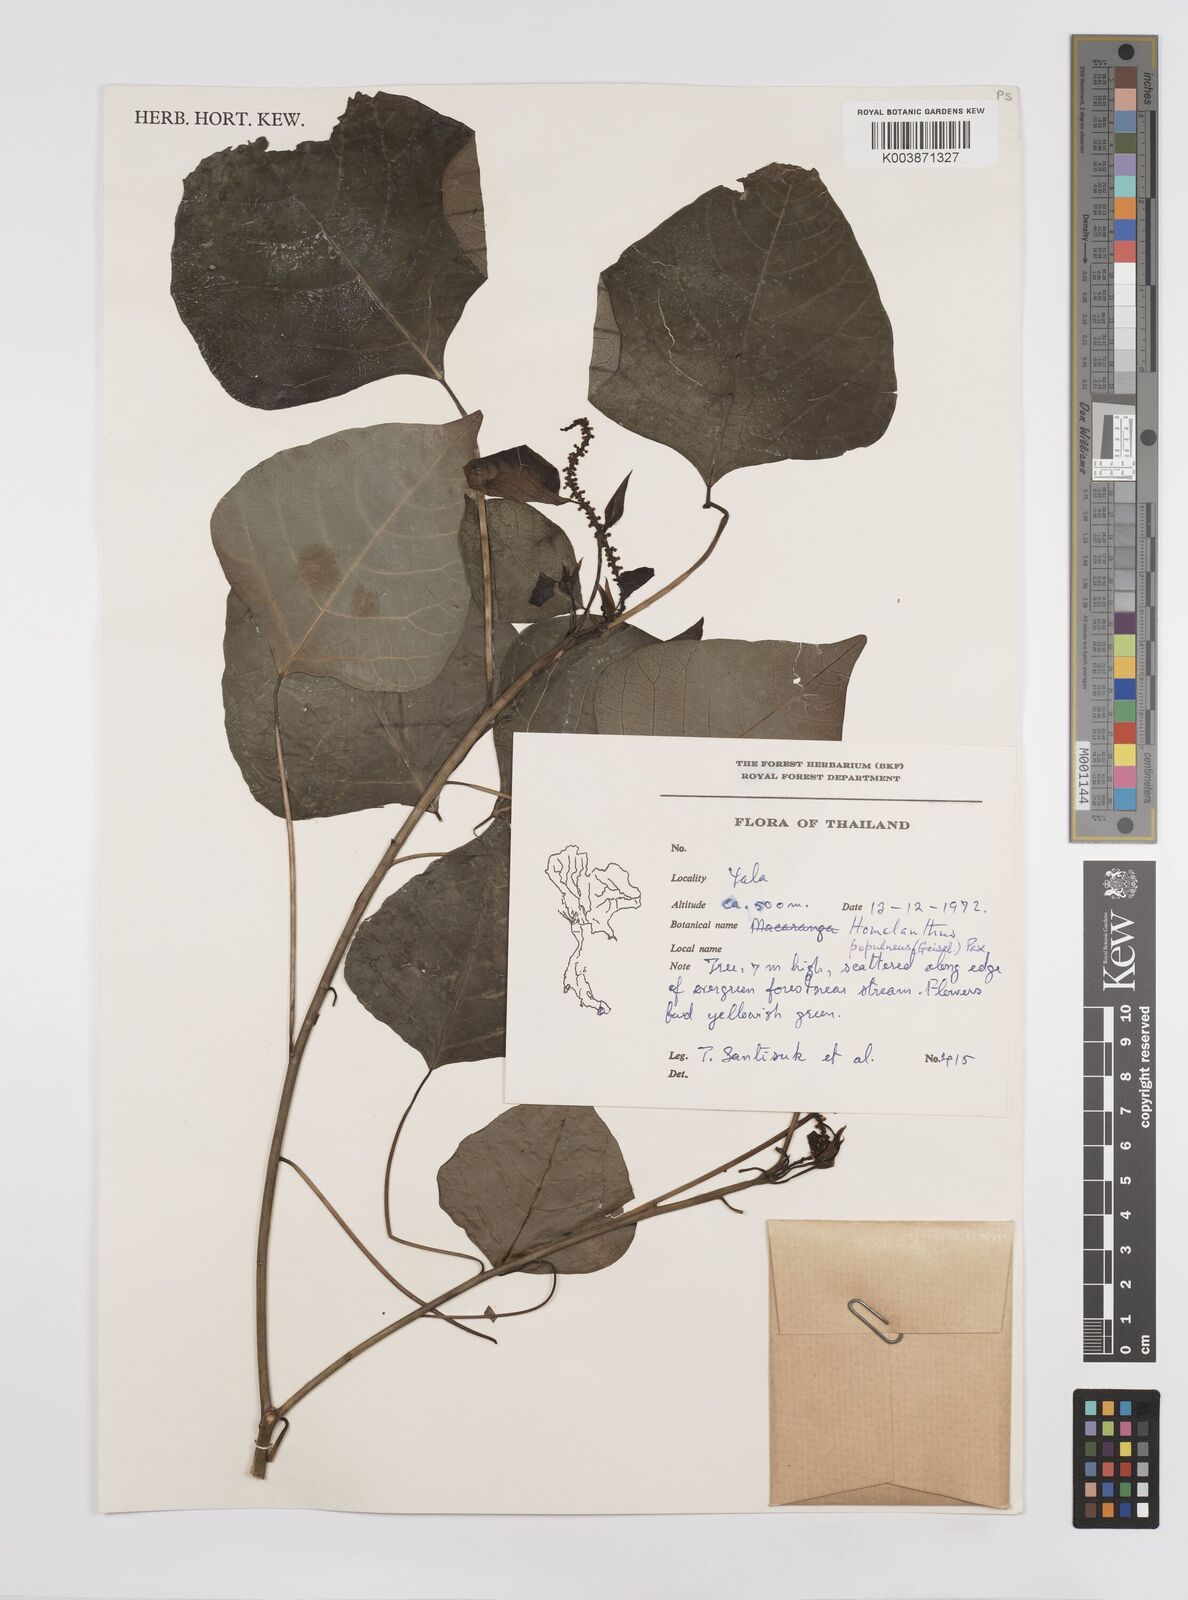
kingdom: Plantae
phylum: Tracheophyta
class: Magnoliopsida
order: Malpighiales
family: Euphorbiaceae
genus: Homalanthus
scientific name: Homalanthus populneus
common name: Spurge
